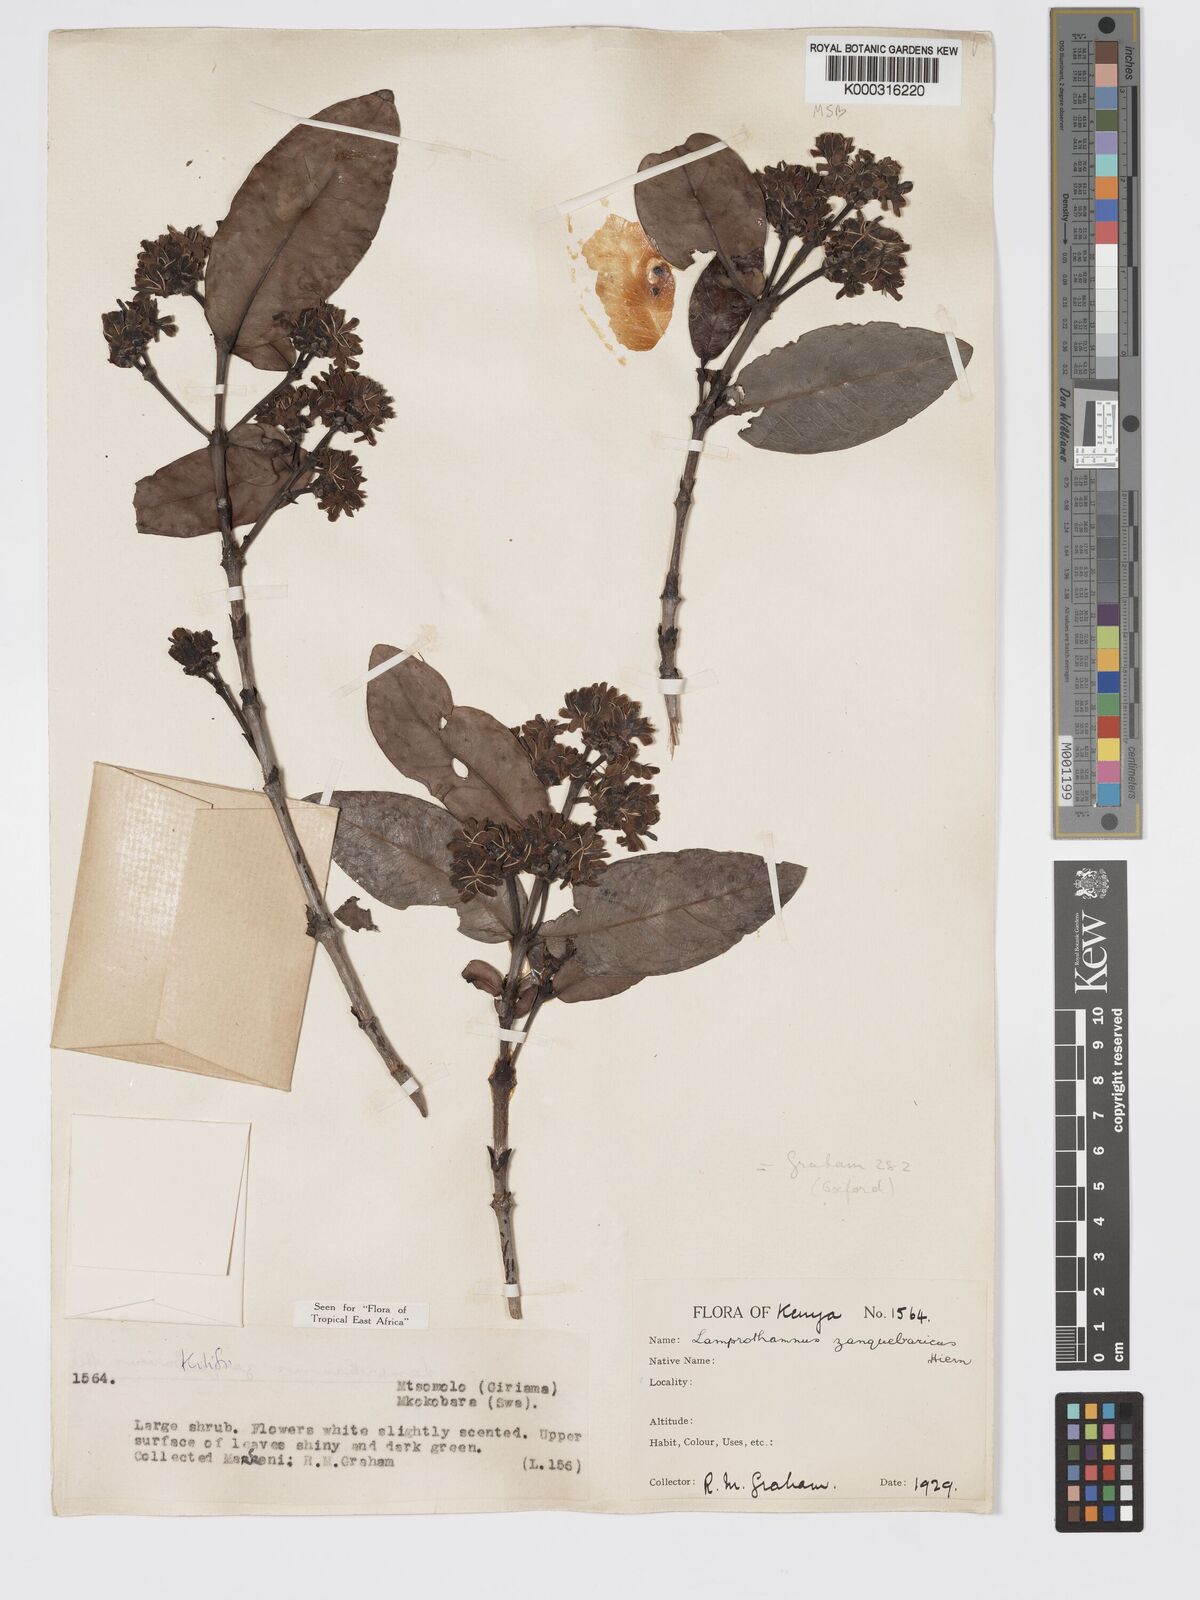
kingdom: Plantae
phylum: Tracheophyta
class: Magnoliopsida
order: Gentianales
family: Rubiaceae
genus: Lamprothamnus
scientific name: Lamprothamnus zanguebaricus
